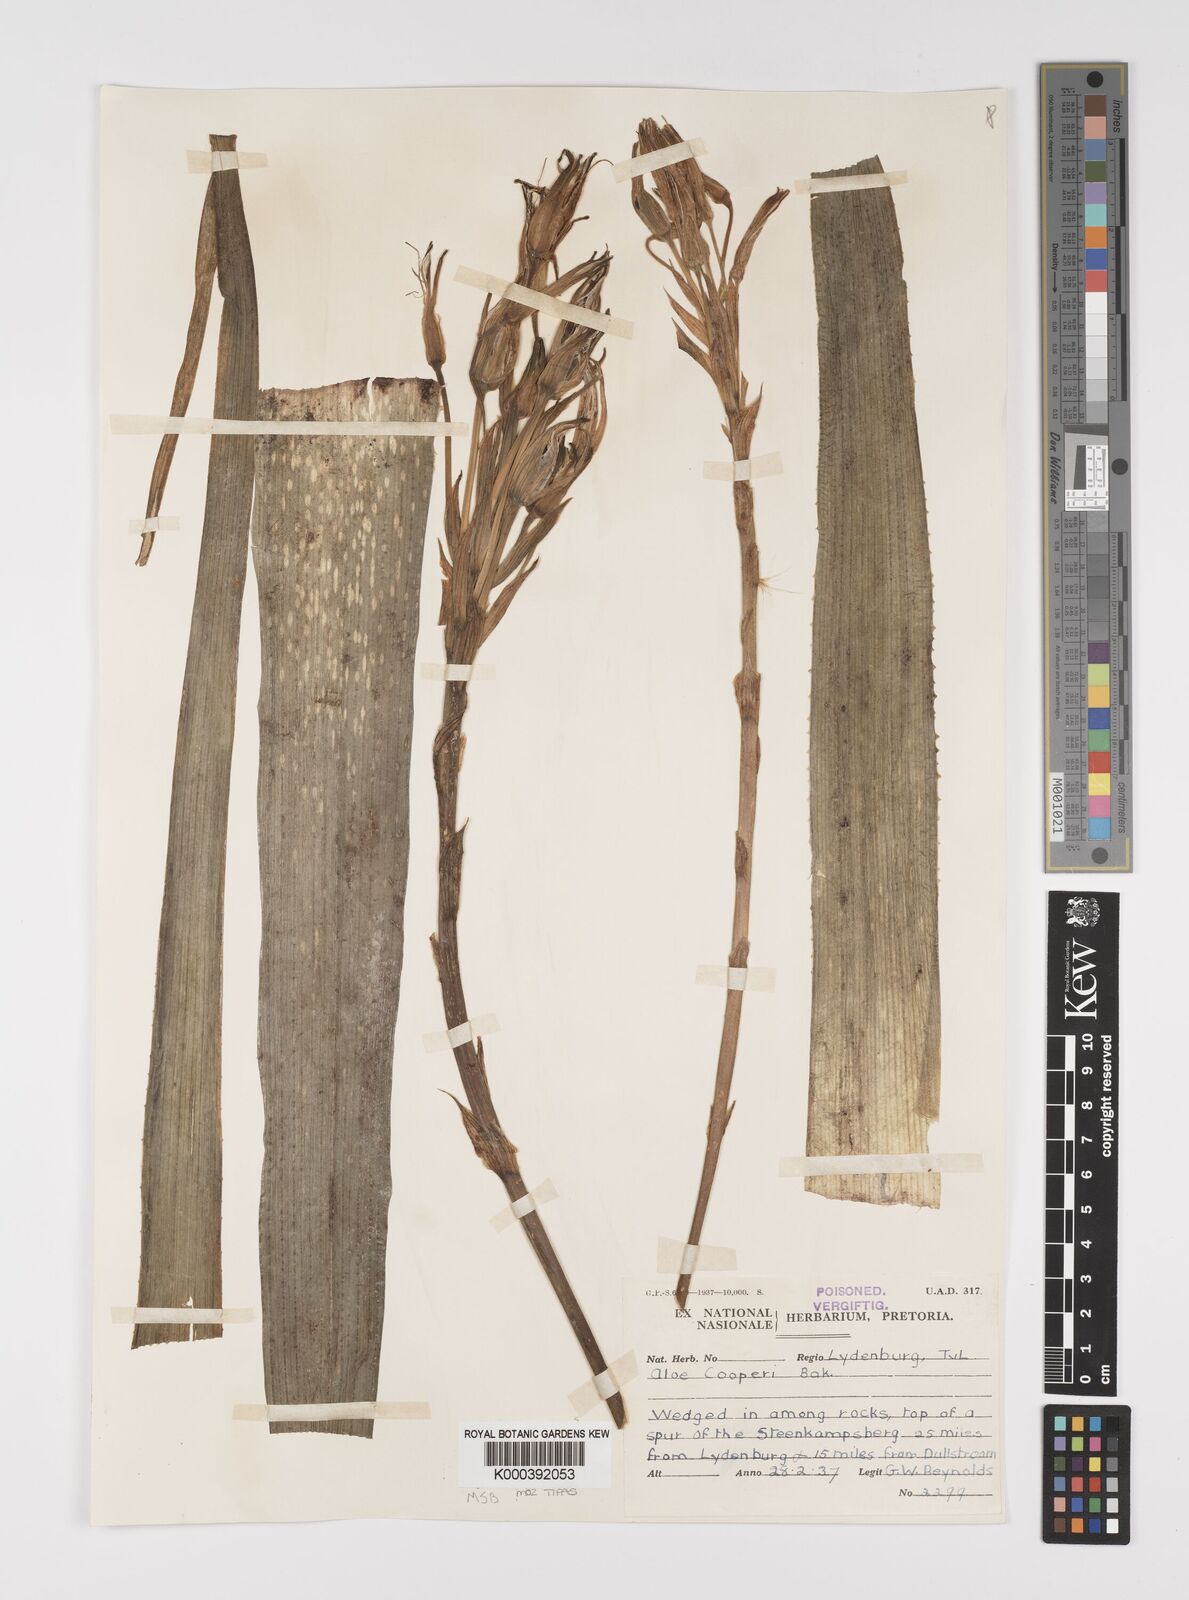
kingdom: Plantae
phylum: Tracheophyta
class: Liliopsida
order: Asparagales
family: Asphodelaceae
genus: Aloe
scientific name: Aloe cooperi
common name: Cooper's aloe
